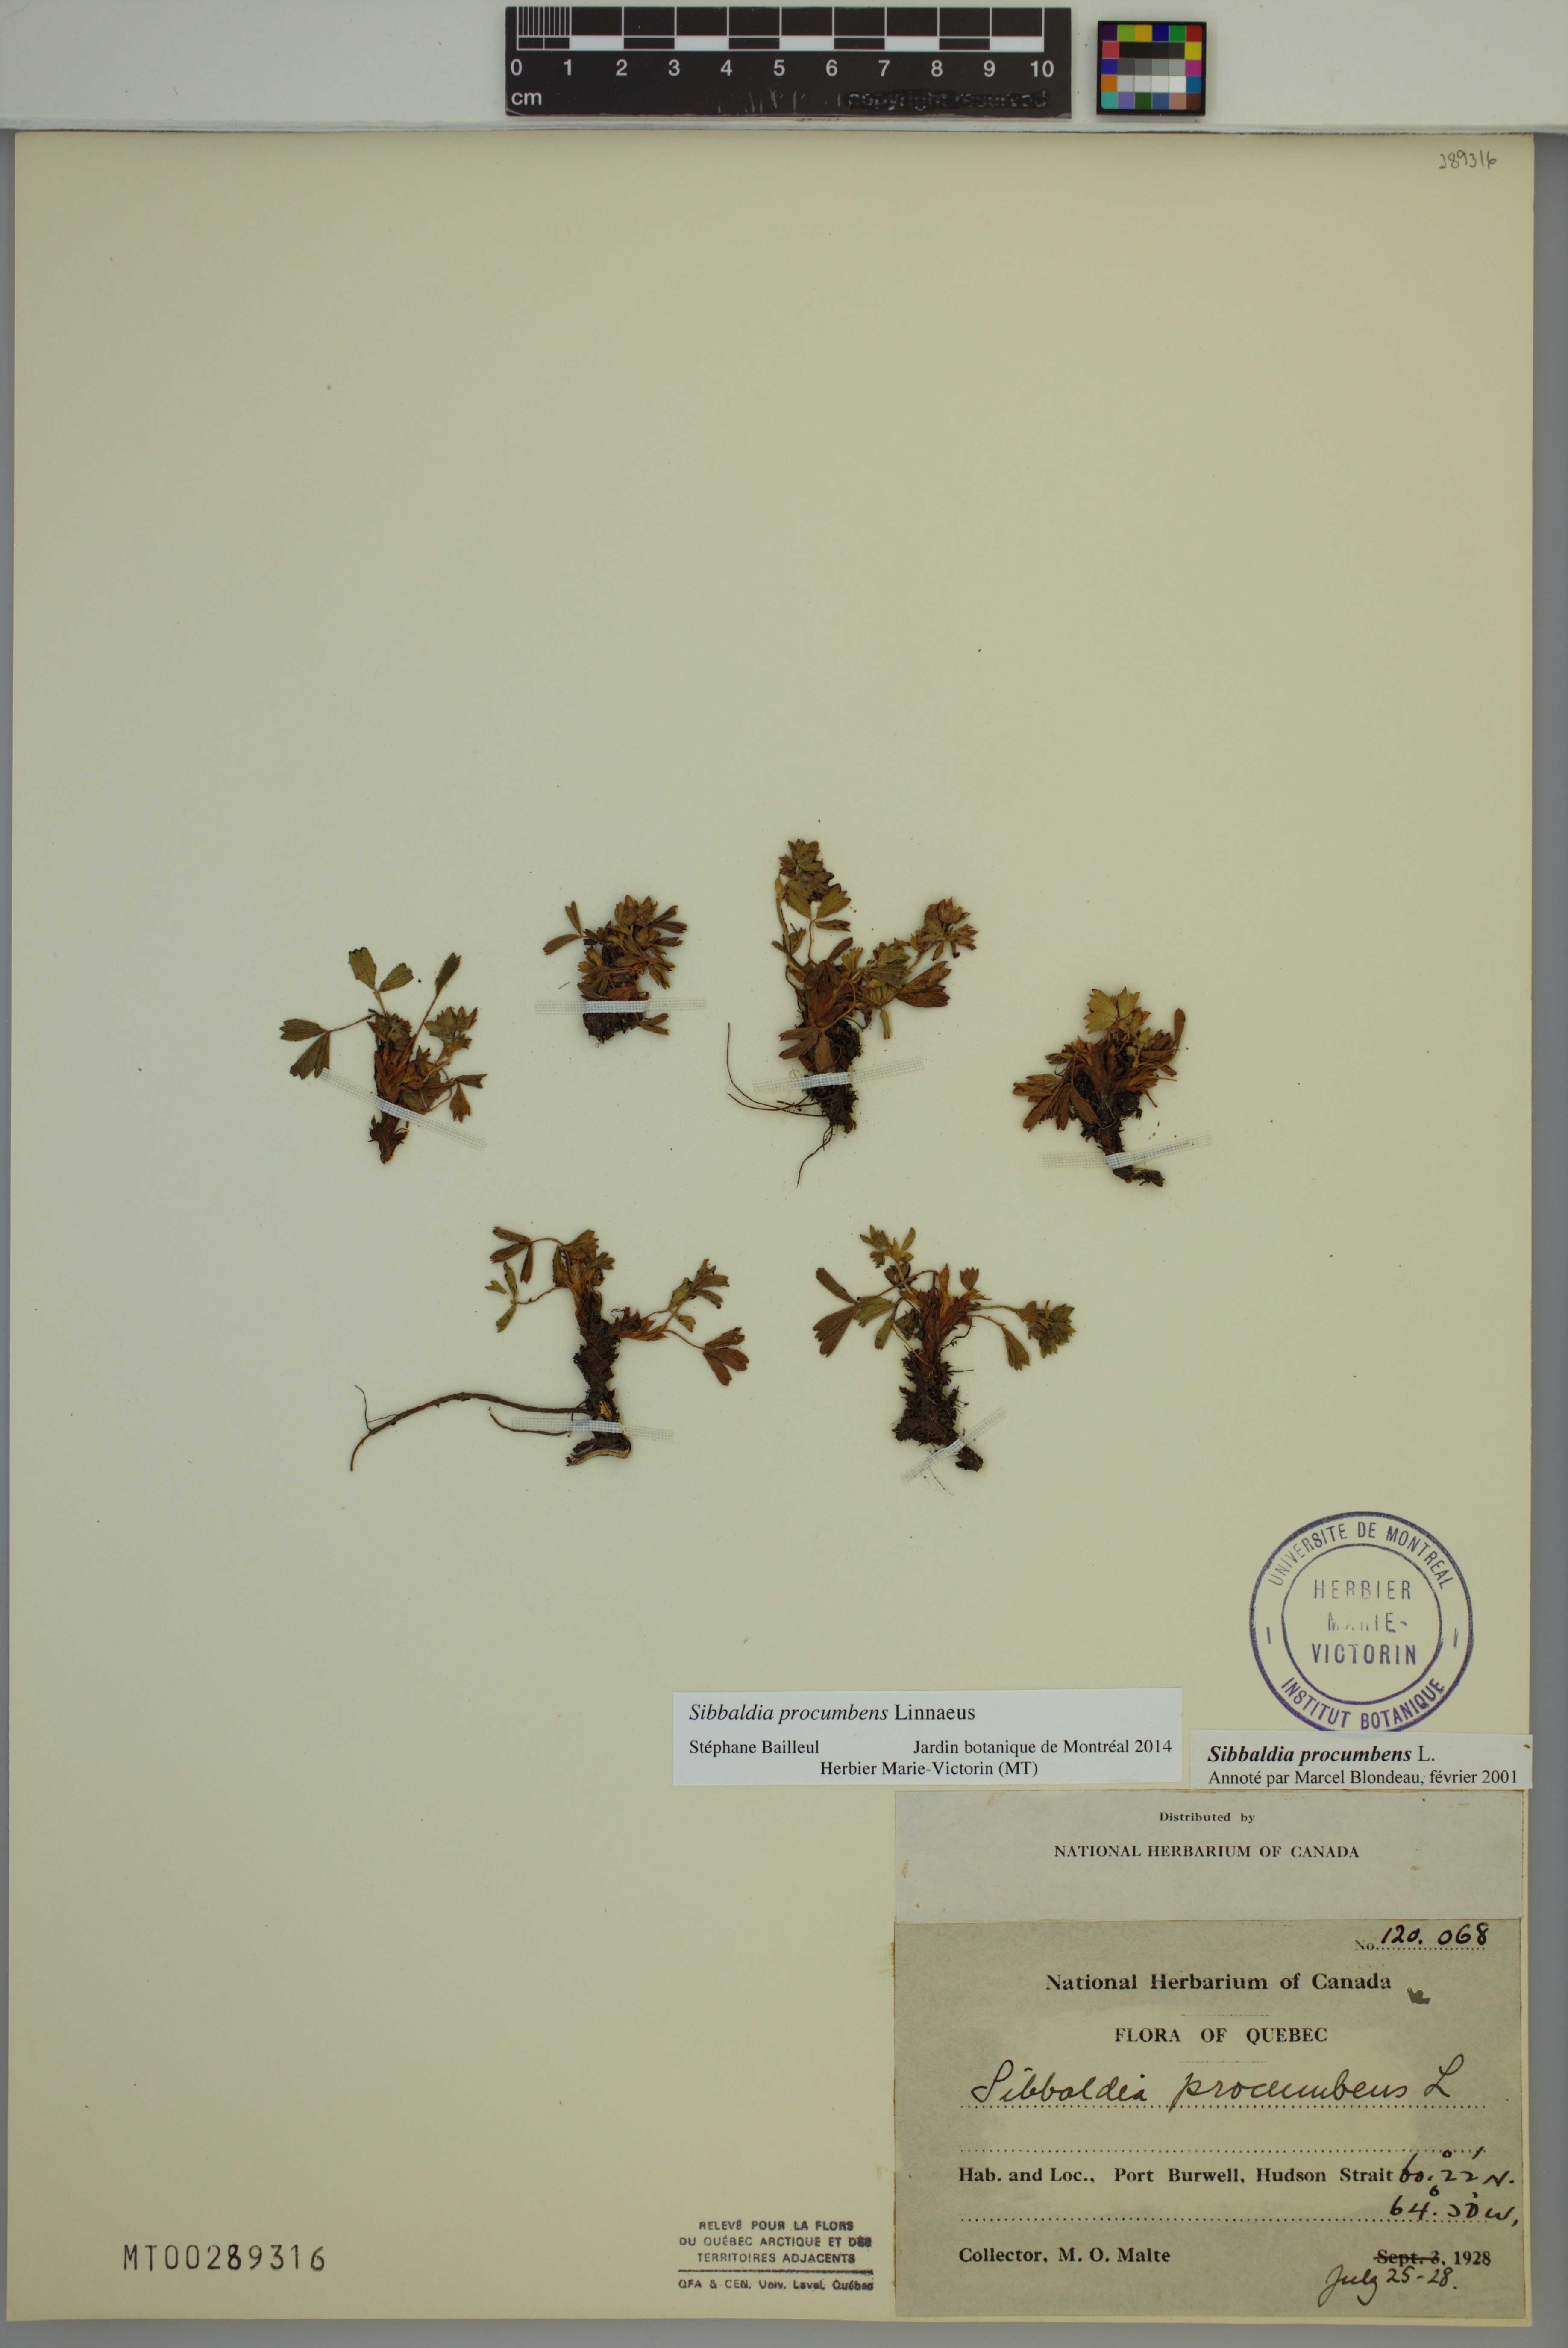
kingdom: Plantae
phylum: Tracheophyta
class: Magnoliopsida
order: Rosales
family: Rosaceae
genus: Sibbaldia
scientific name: Sibbaldia procumbens
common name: Creeping sibbaldia
